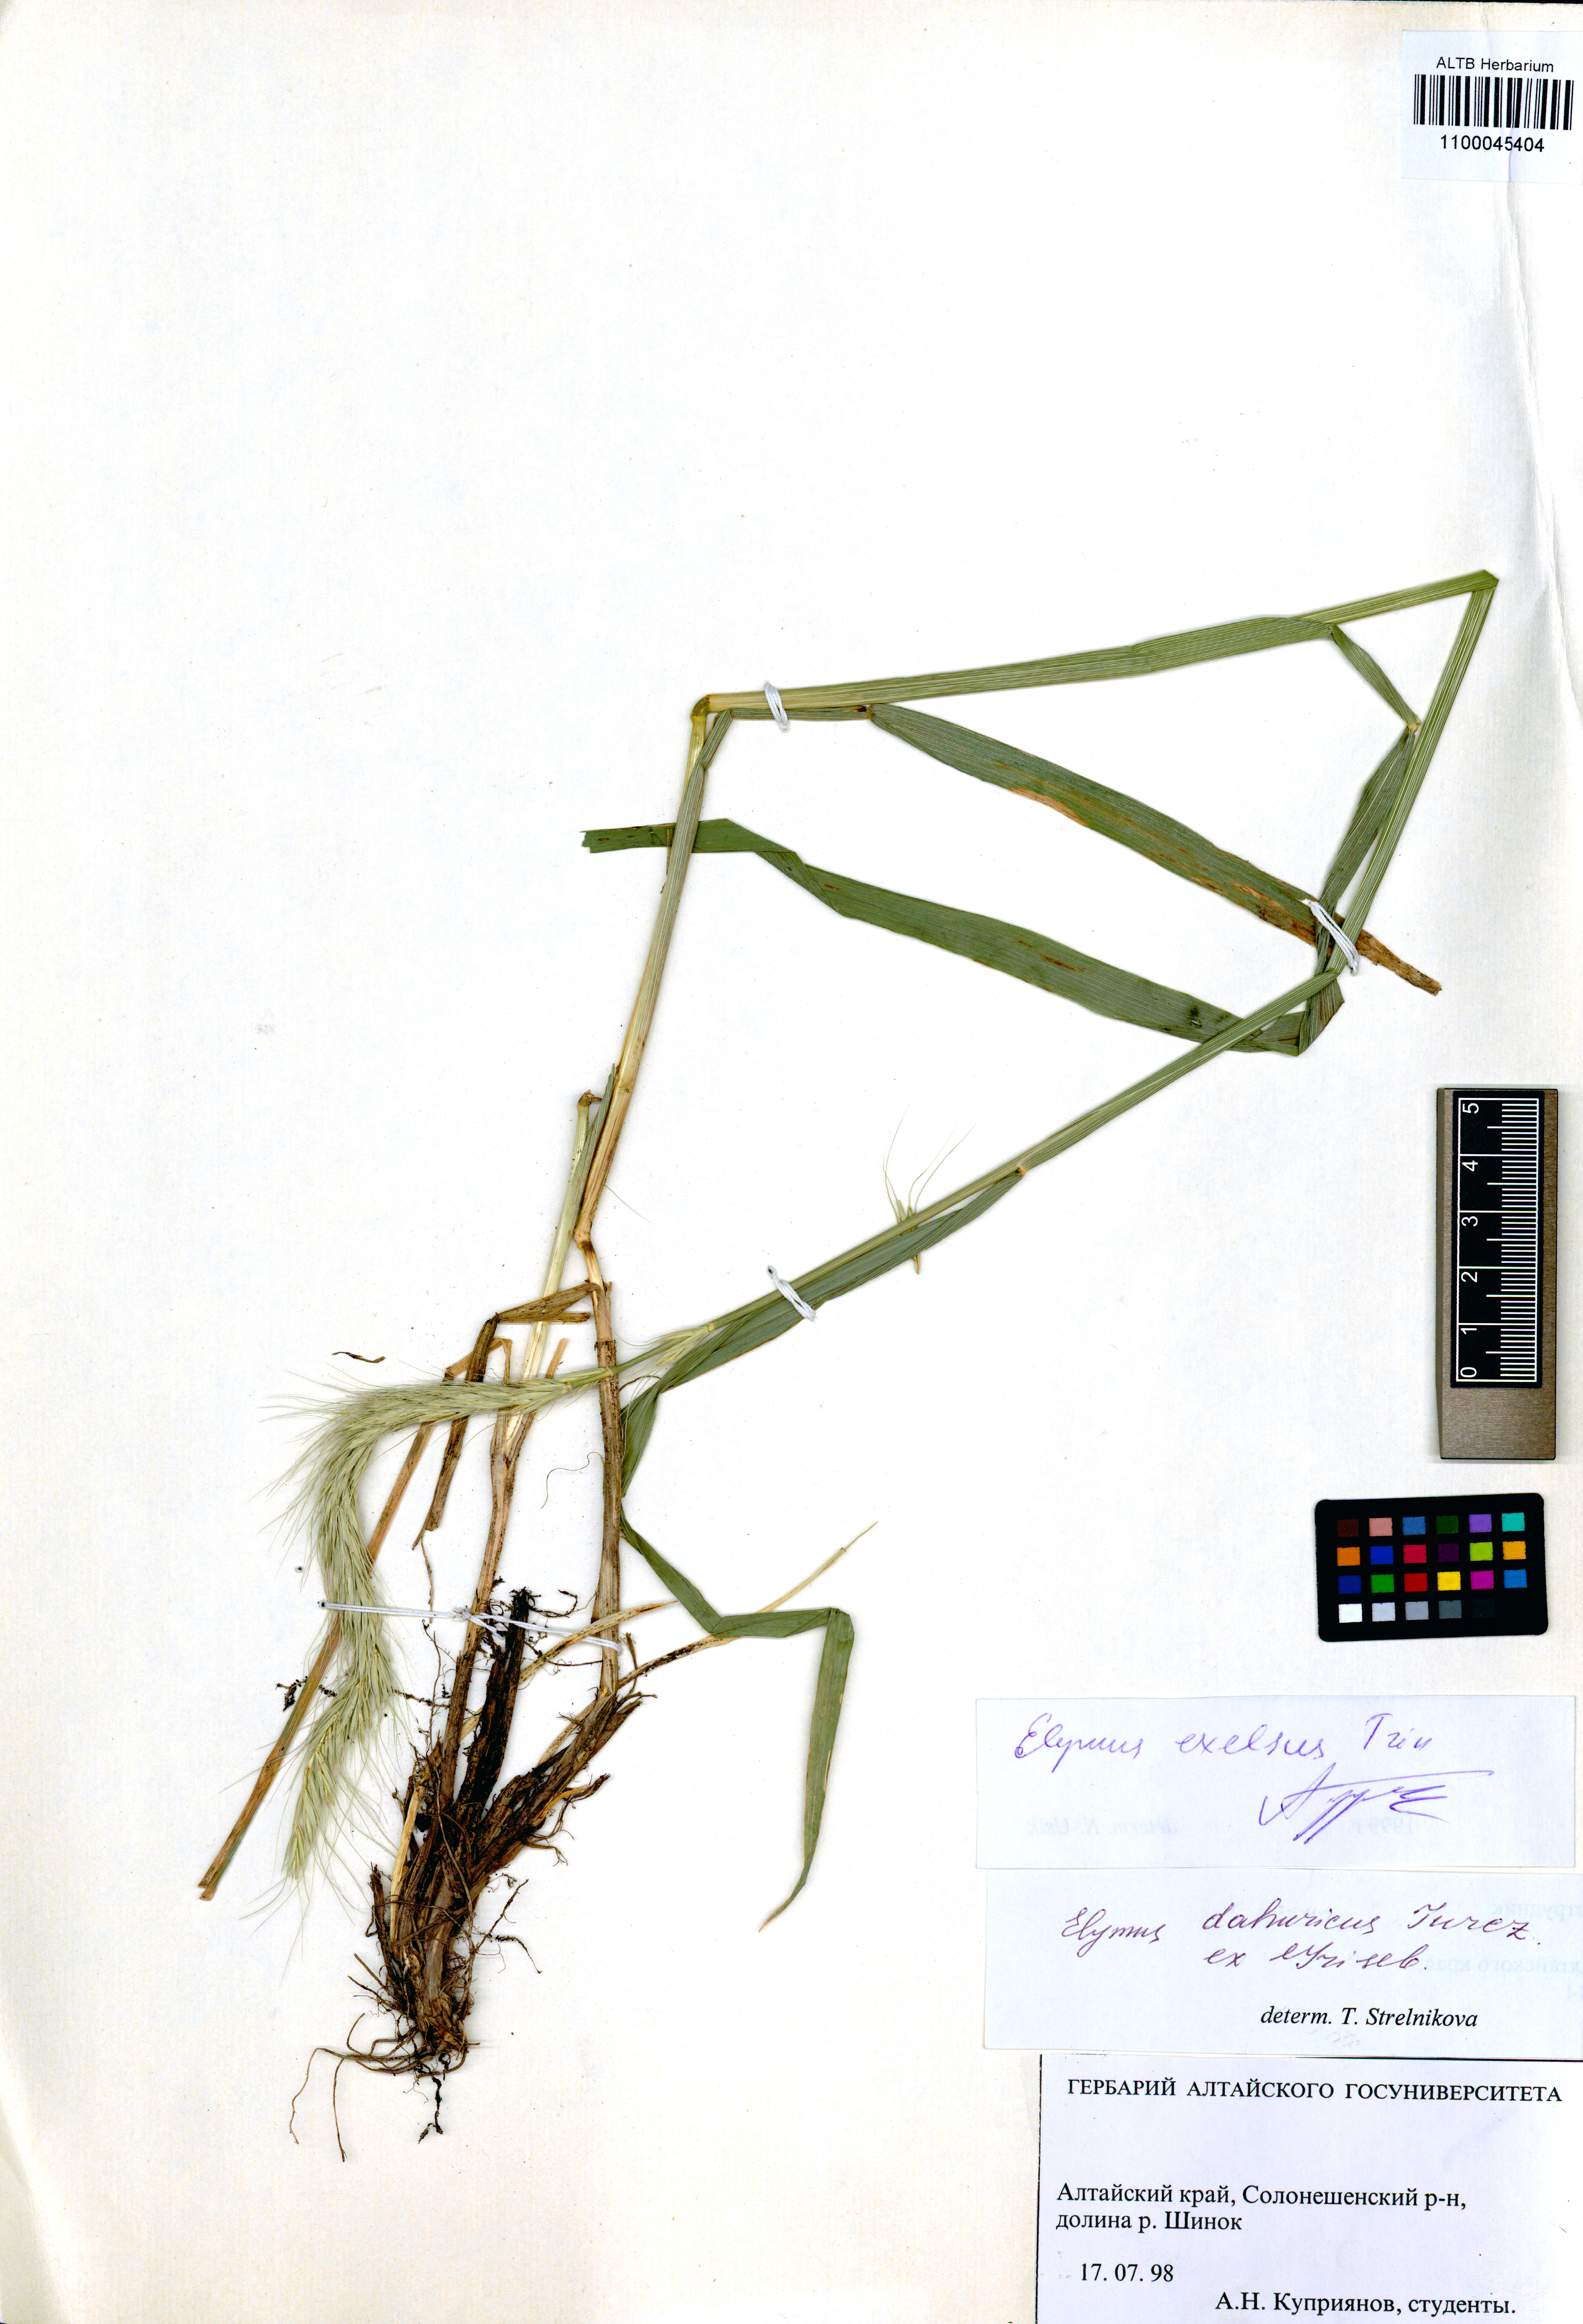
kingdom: Plantae
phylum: Tracheophyta
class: Liliopsida
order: Poales
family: Poaceae
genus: Elymus
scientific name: Elymus dahuricus
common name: Dahurian wild rye
